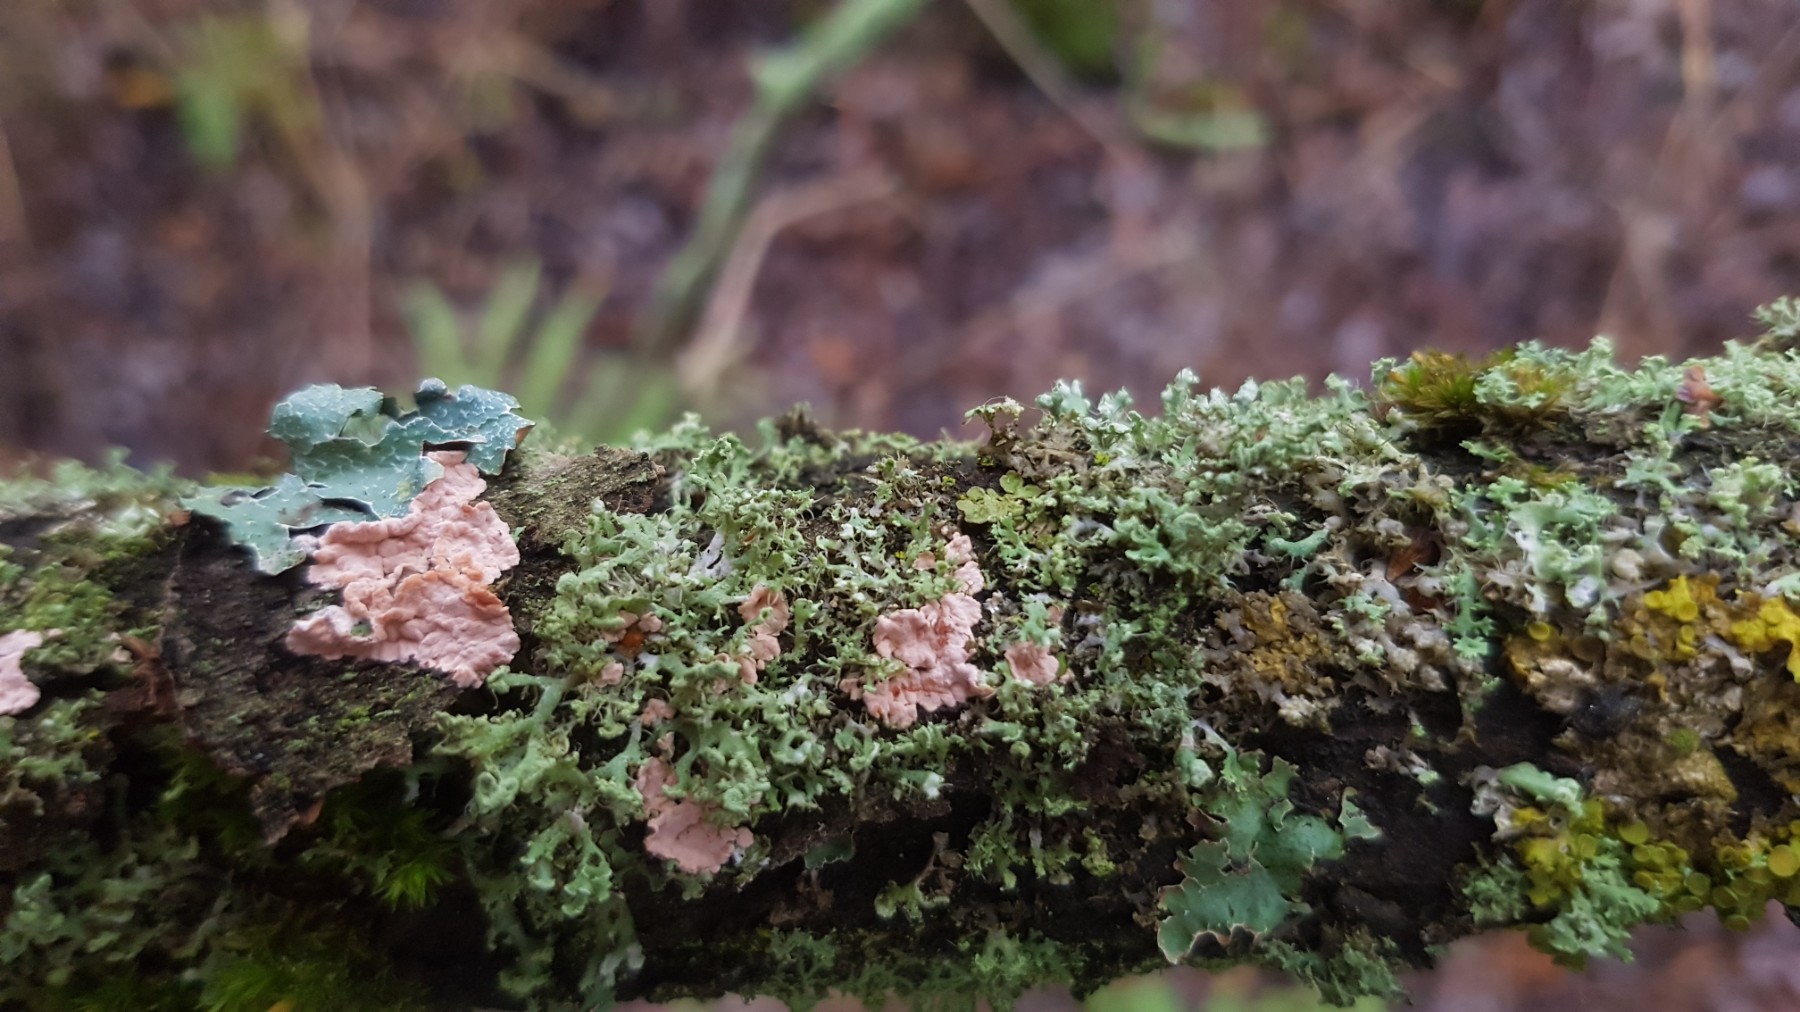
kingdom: Fungi
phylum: Basidiomycota
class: Agaricomycetes
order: Corticiales
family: Corticiaceae
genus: Corticium
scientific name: Corticium roseum
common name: rosa barkskind
